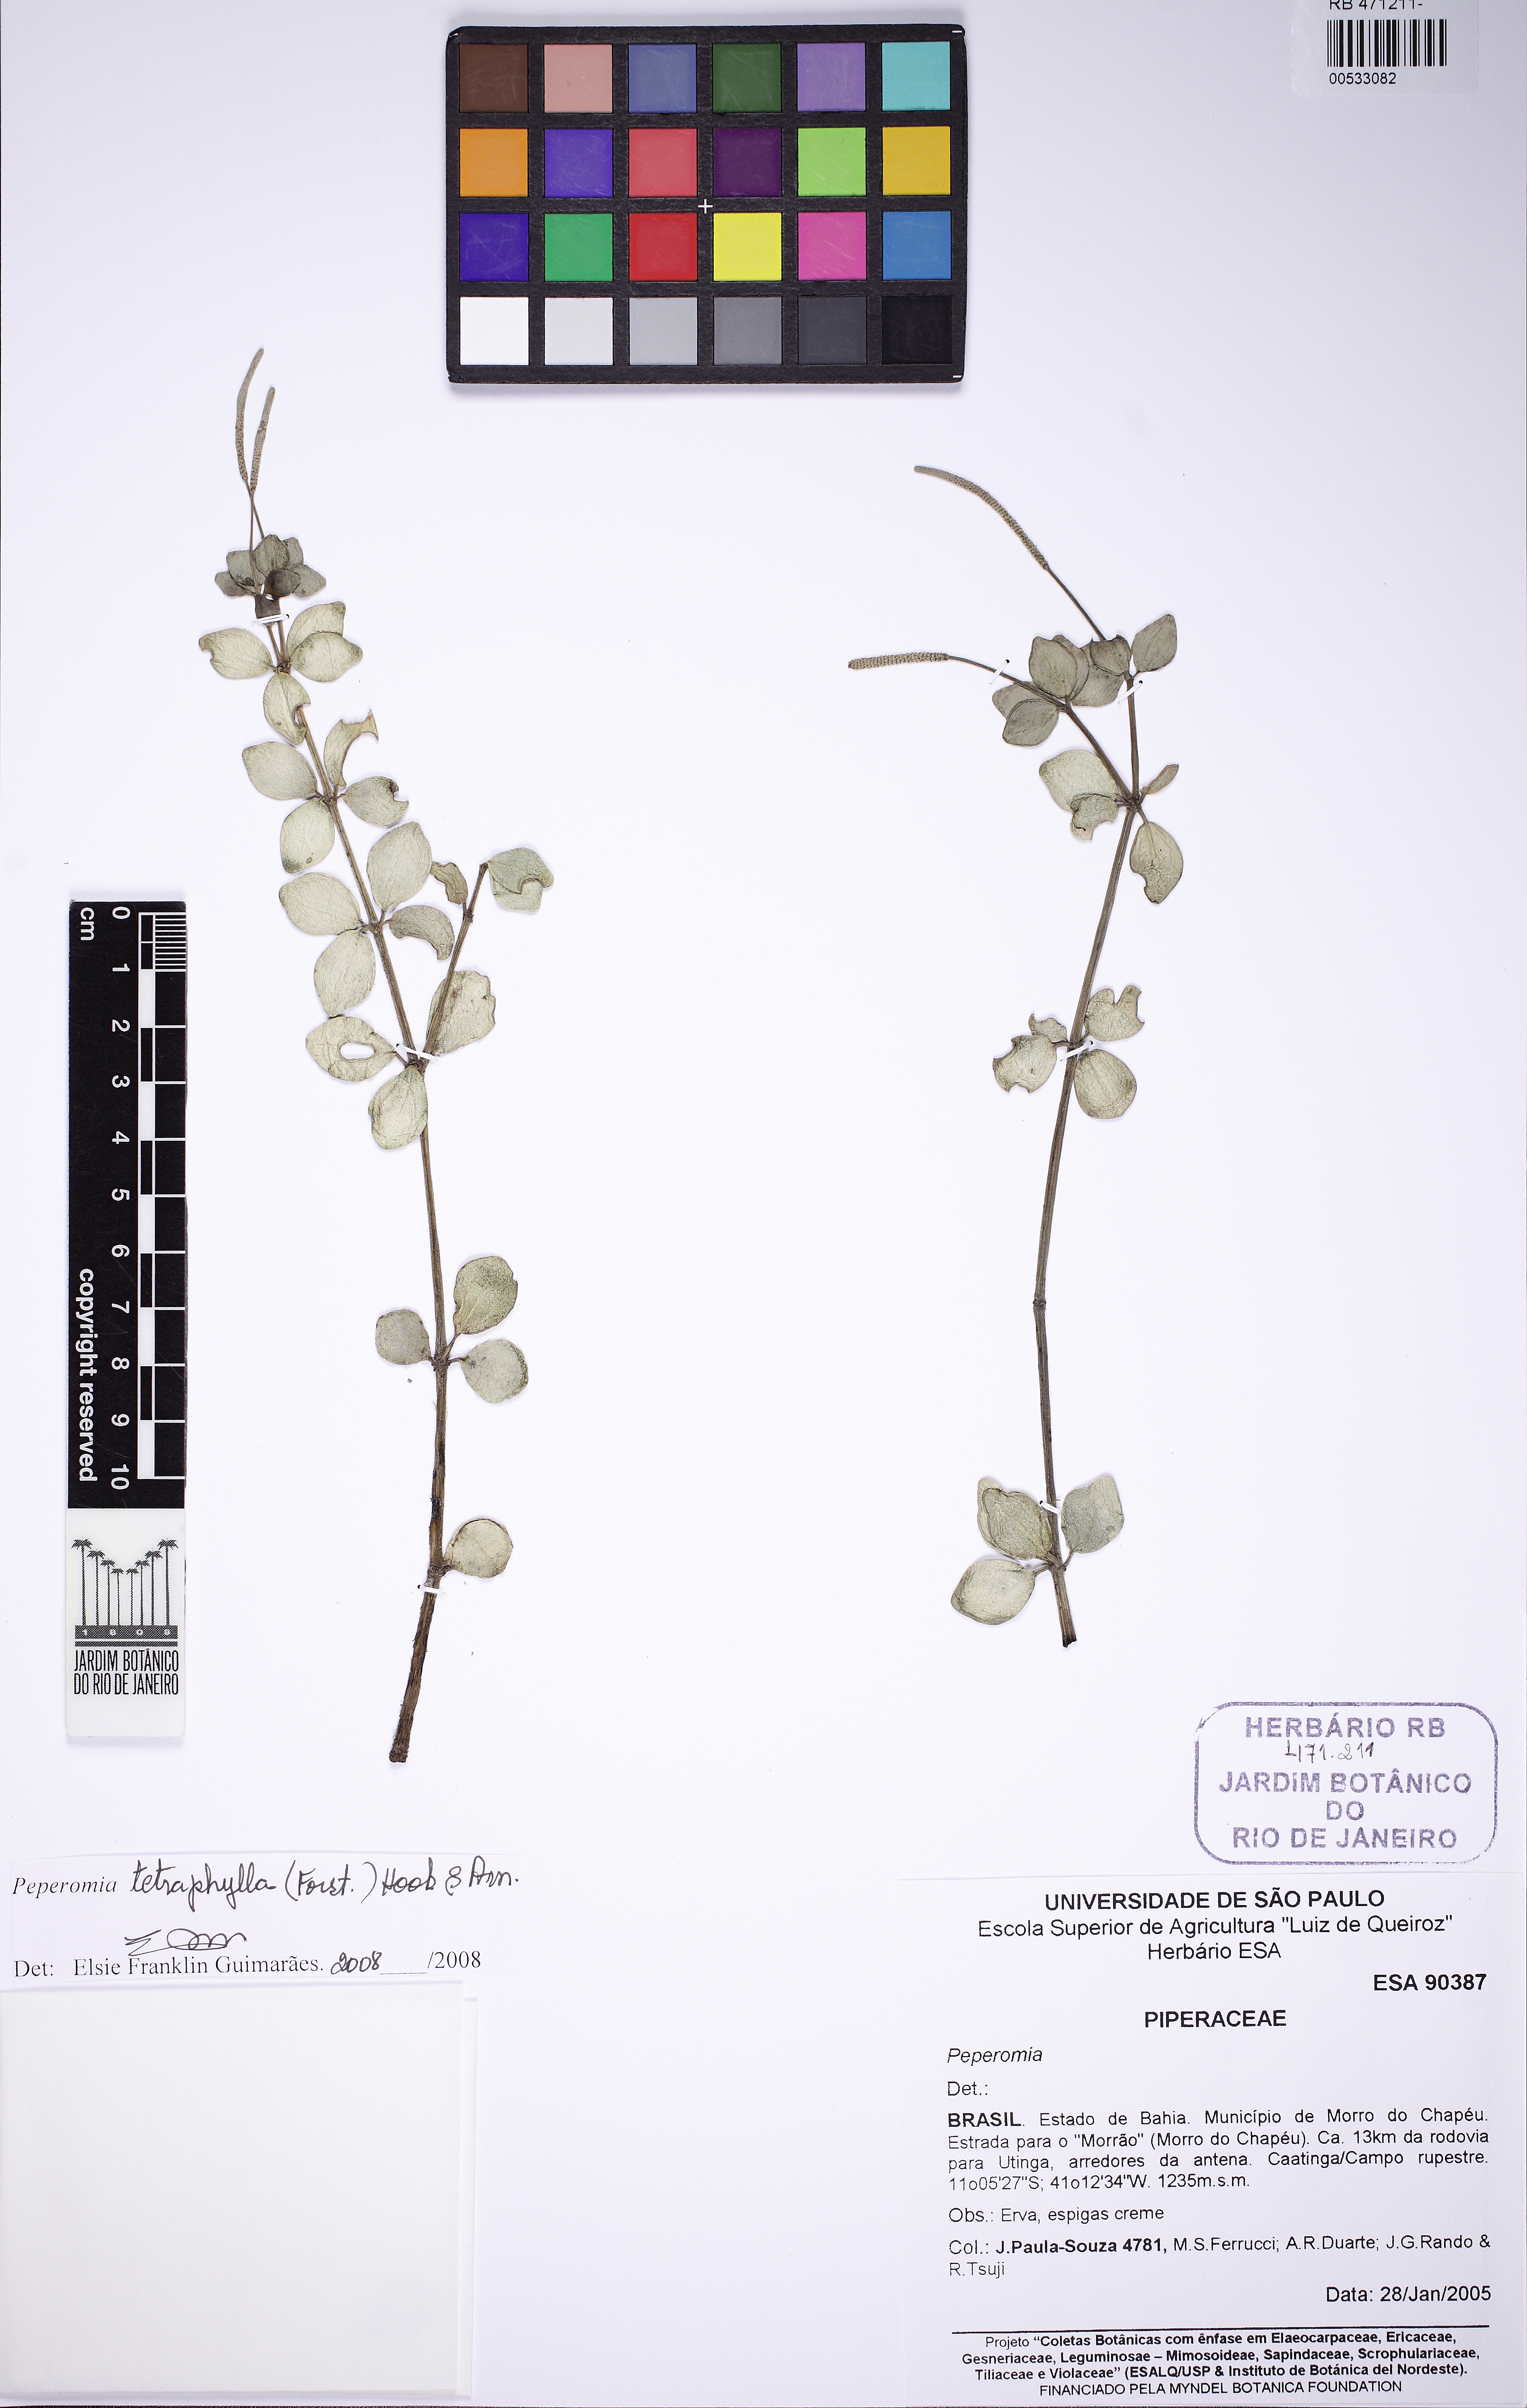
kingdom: Plantae
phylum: Tracheophyta
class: Magnoliopsida
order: Piperales
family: Piperaceae
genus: Peperomia
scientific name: Peperomia tetraphylla
